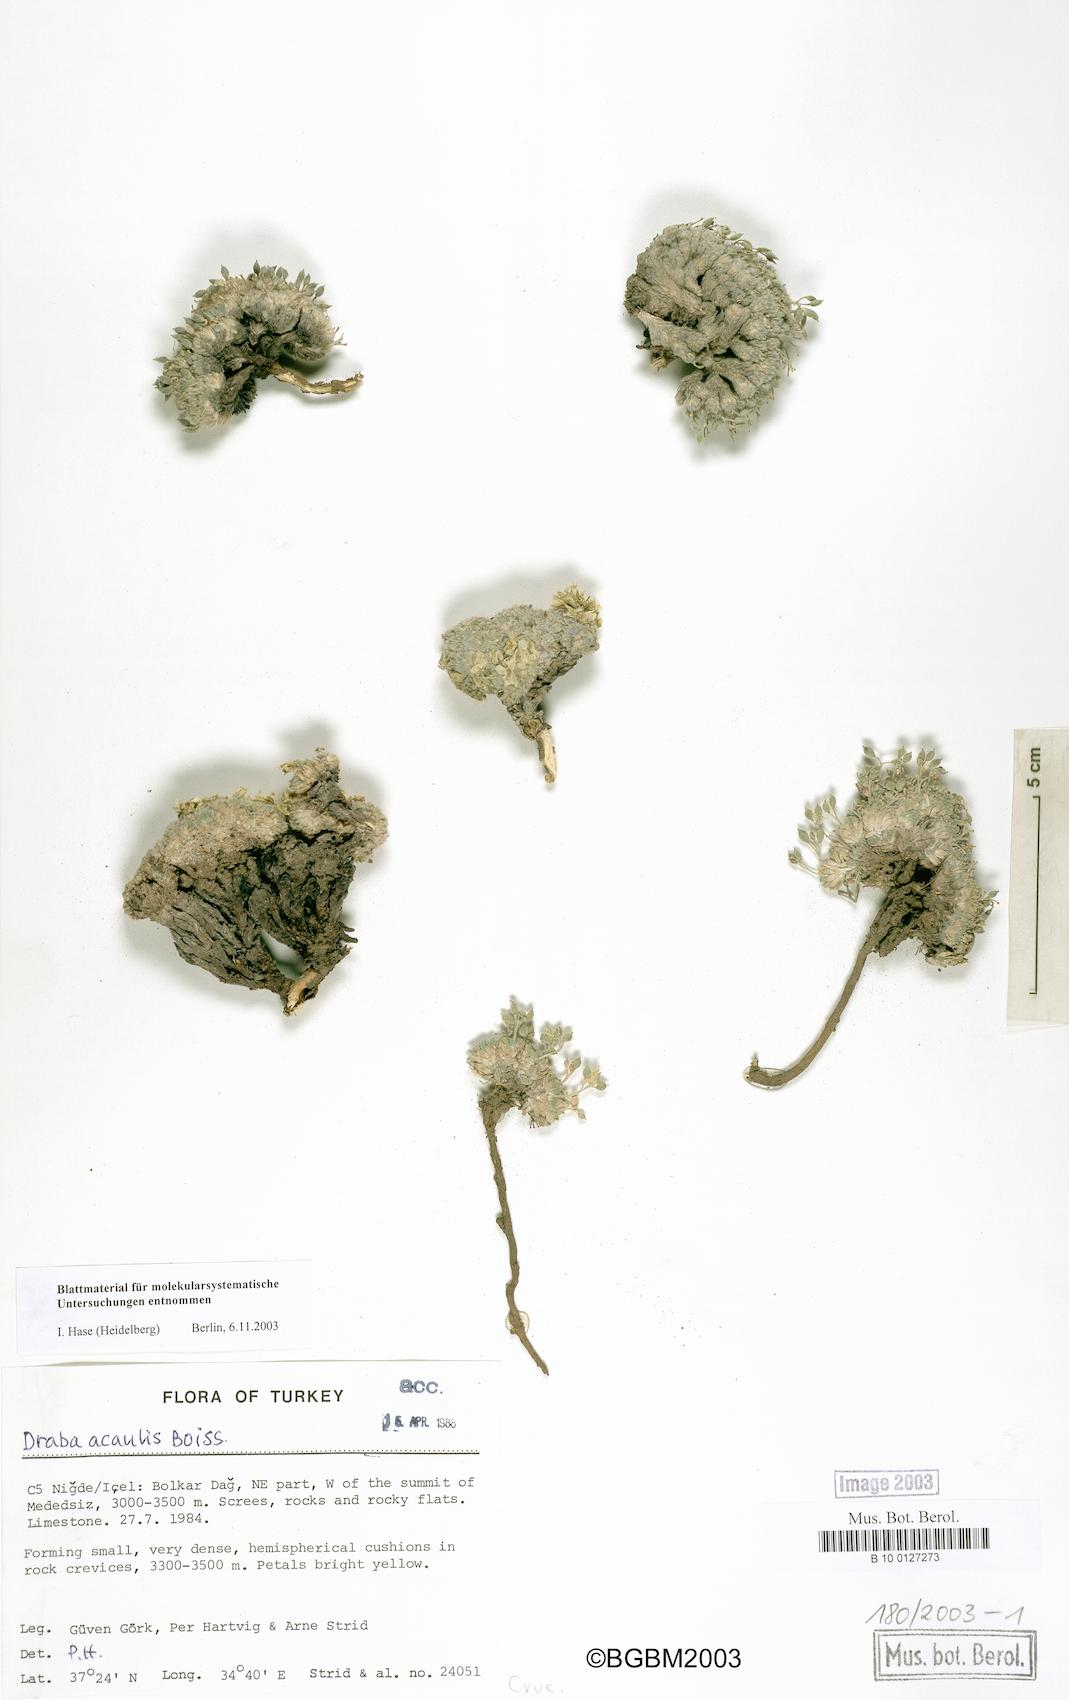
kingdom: Plantae
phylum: Tracheophyta
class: Magnoliopsida
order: Brassicales
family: Brassicaceae
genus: Draba
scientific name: Draba acaulis
